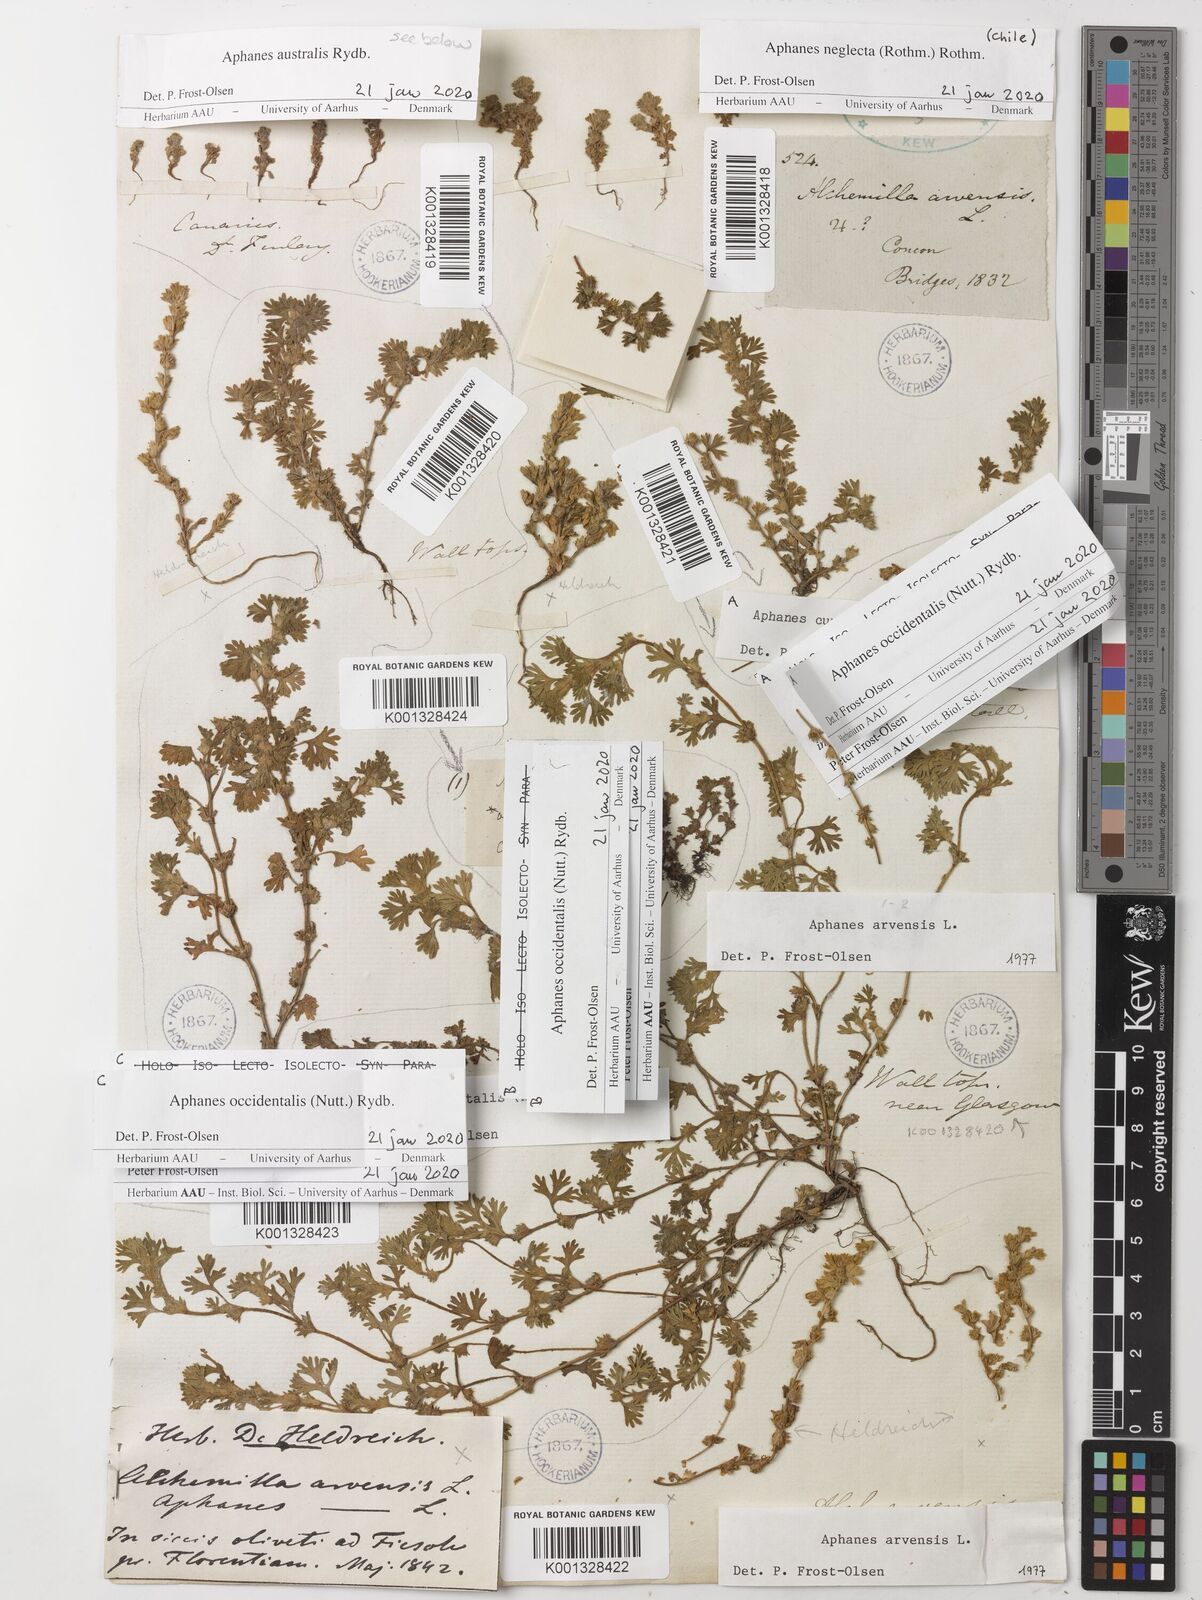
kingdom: Plantae
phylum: Tracheophyta
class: Magnoliopsida
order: Rosales
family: Rosaceae
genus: Aphanes
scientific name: Aphanes arvensis
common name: Parsley-piert
